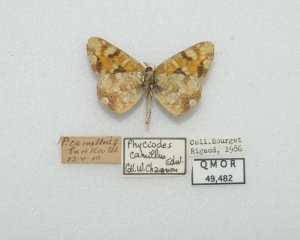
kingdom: Animalia
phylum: Arthropoda
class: Insecta
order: Lepidoptera
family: Nymphalidae
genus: Phyciodes
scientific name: Phyciodes tharos
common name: Field Crescent
